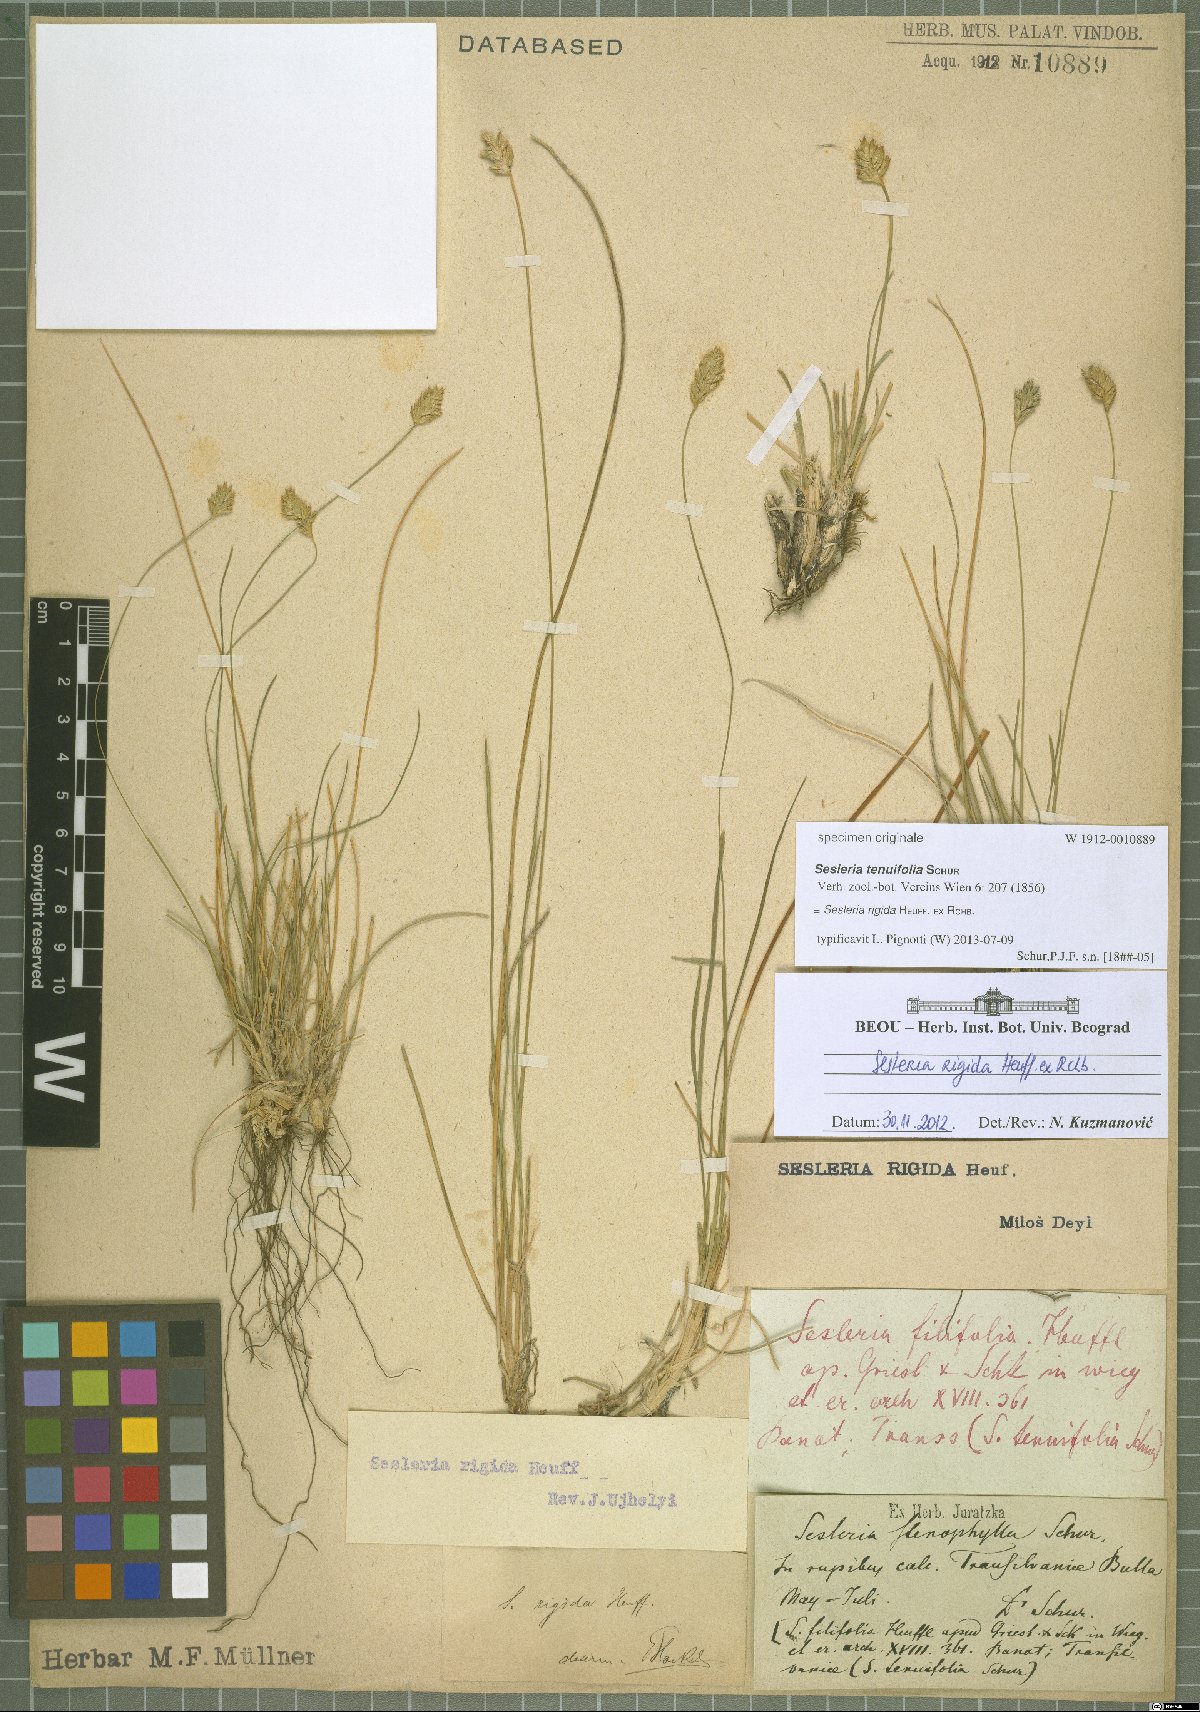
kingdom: Plantae
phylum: Tracheophyta
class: Liliopsida
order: Poales
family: Poaceae
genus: Sesleria
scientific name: Sesleria rigida
